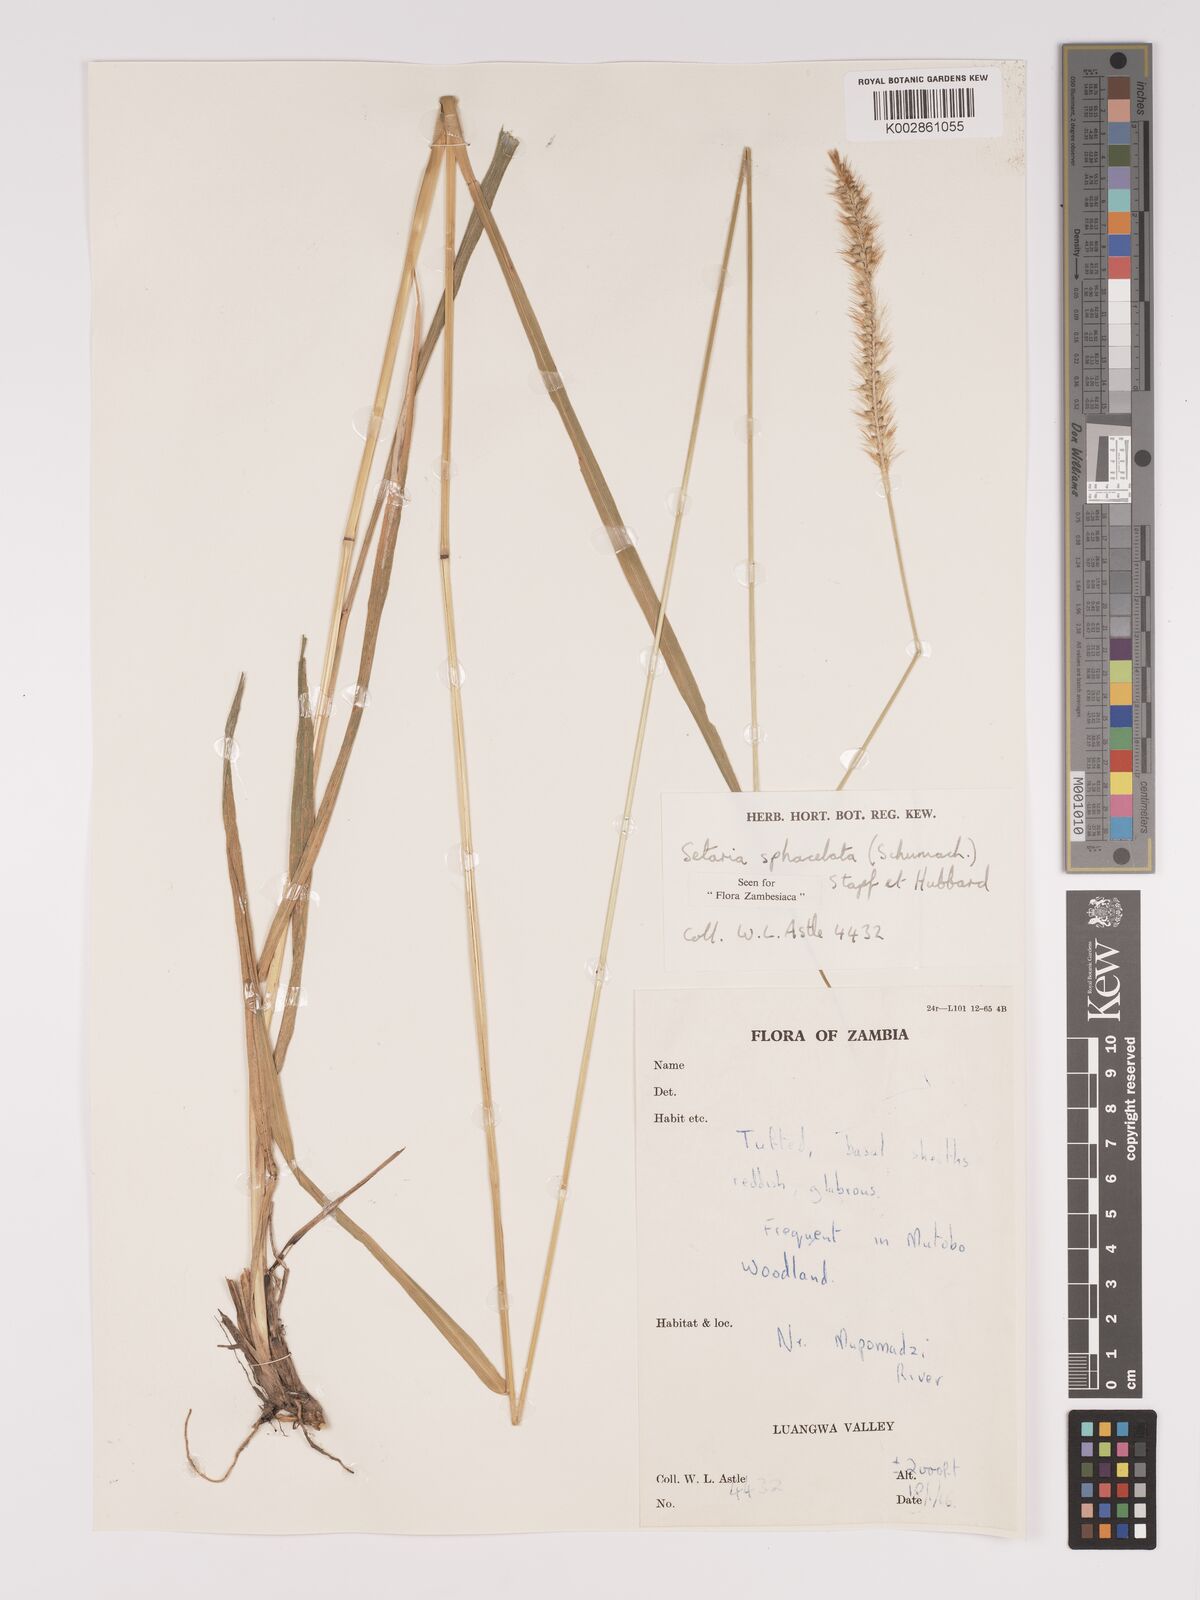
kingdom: Plantae
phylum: Tracheophyta
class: Liliopsida
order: Poales
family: Poaceae
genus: Setaria
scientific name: Setaria sphacelata
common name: African bristlegrass
